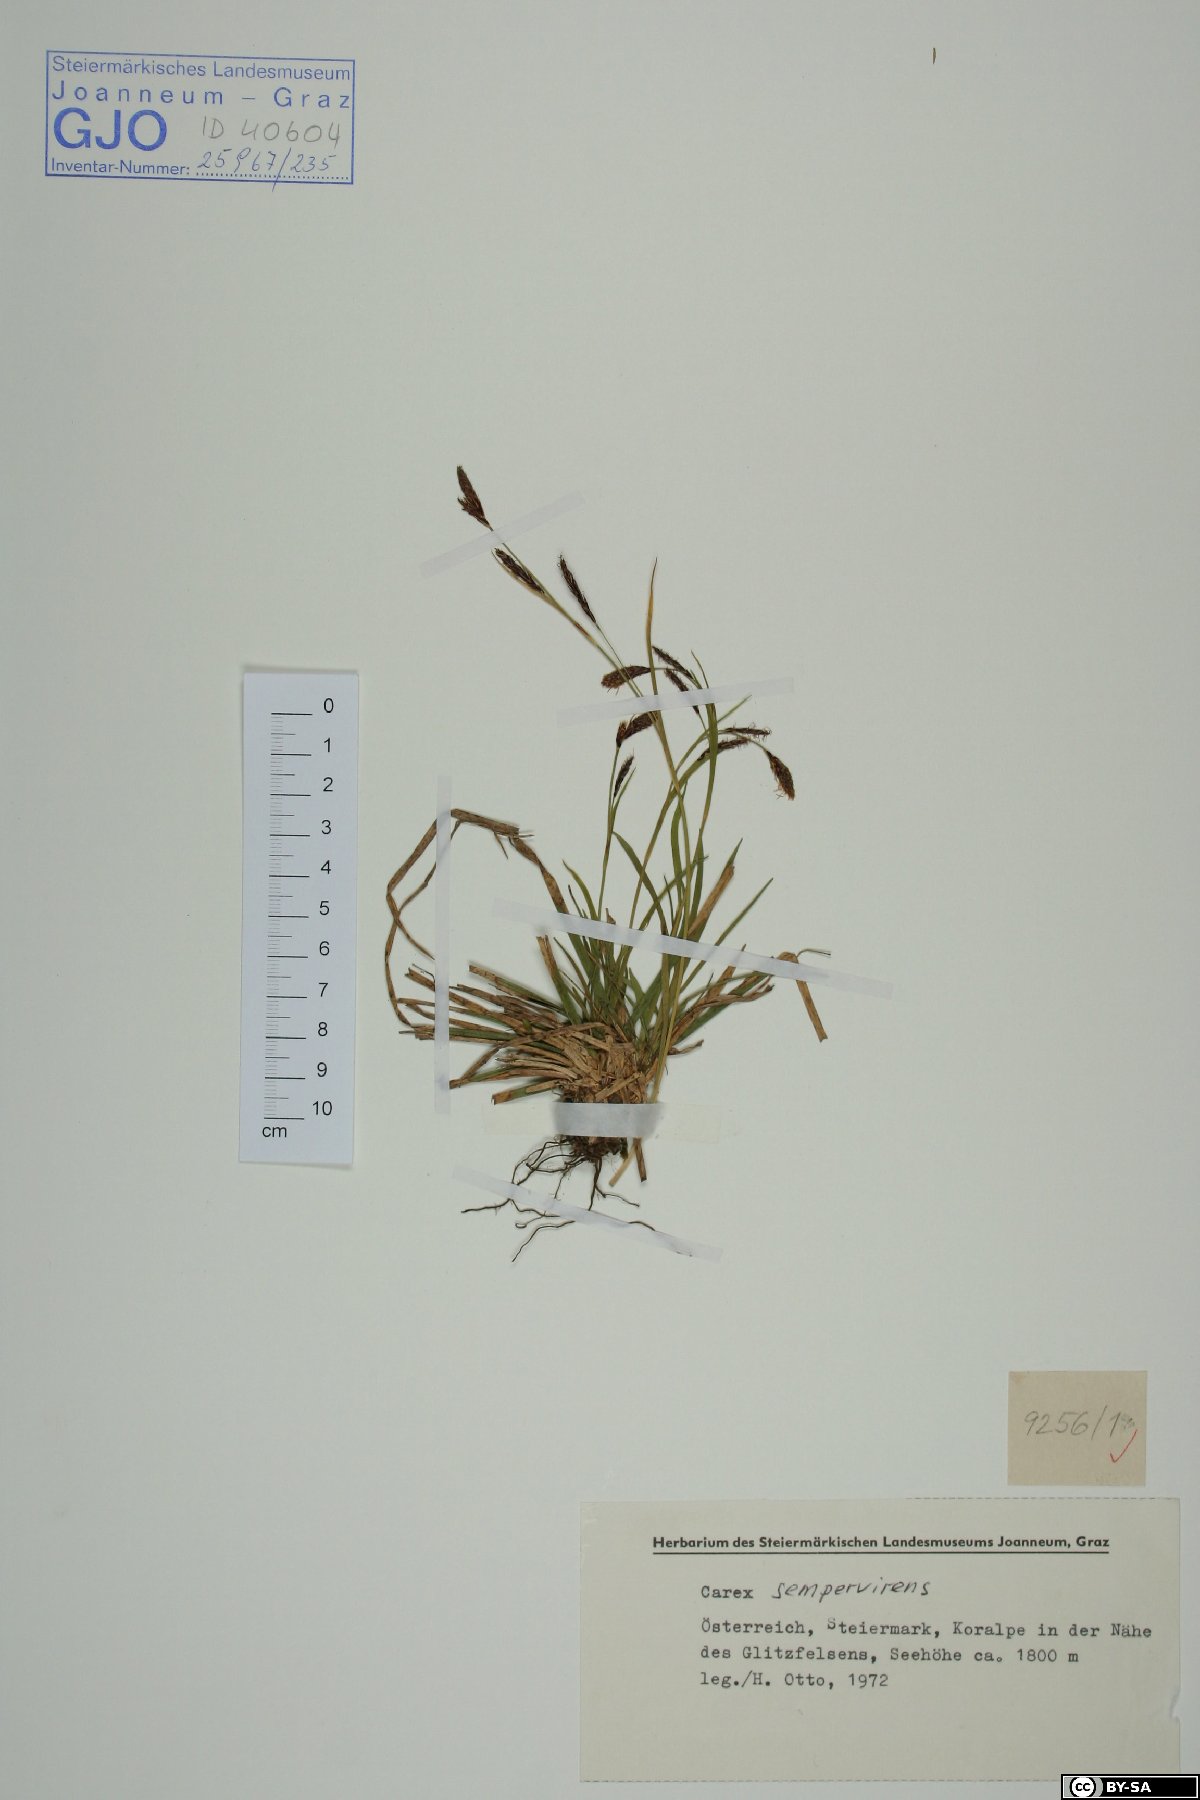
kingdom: Plantae
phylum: Tracheophyta
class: Liliopsida
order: Poales
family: Cyperaceae
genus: Carex
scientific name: Carex sempervirens
